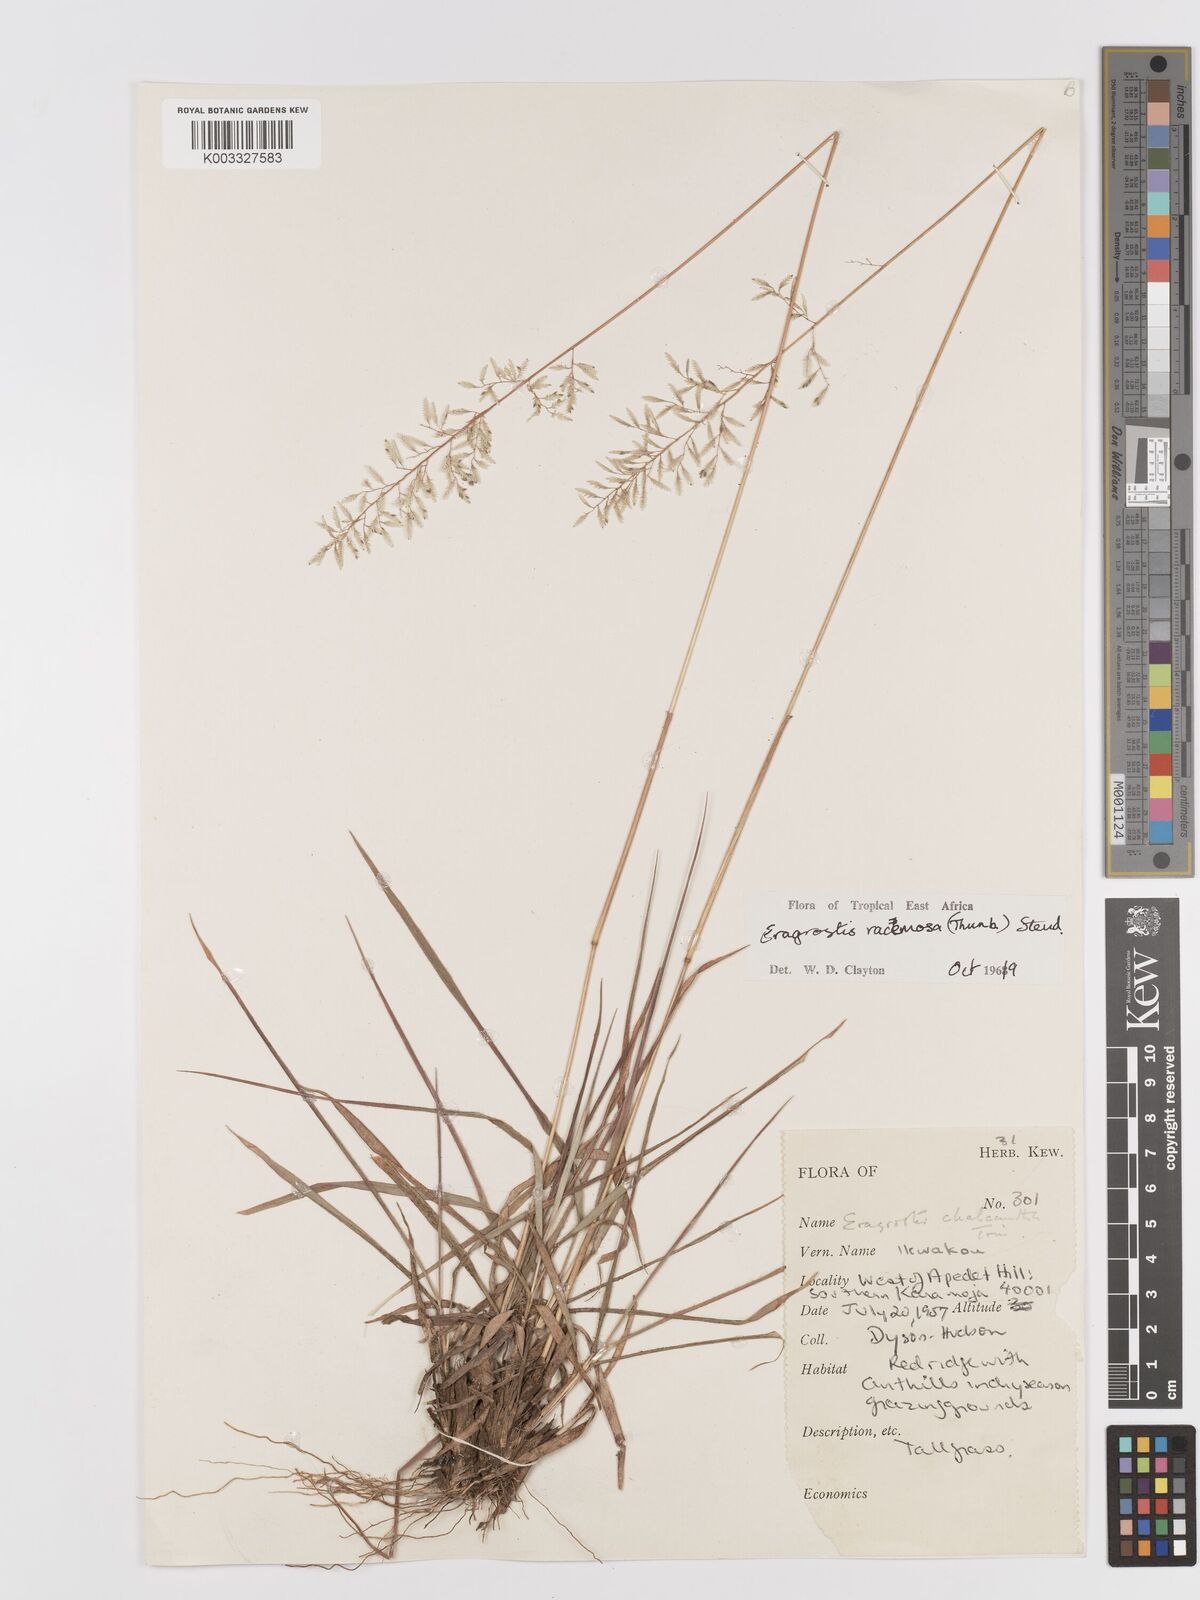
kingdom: Plantae
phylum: Tracheophyta
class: Liliopsida
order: Poales
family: Poaceae
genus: Eragrostis
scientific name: Eragrostis racemosa
